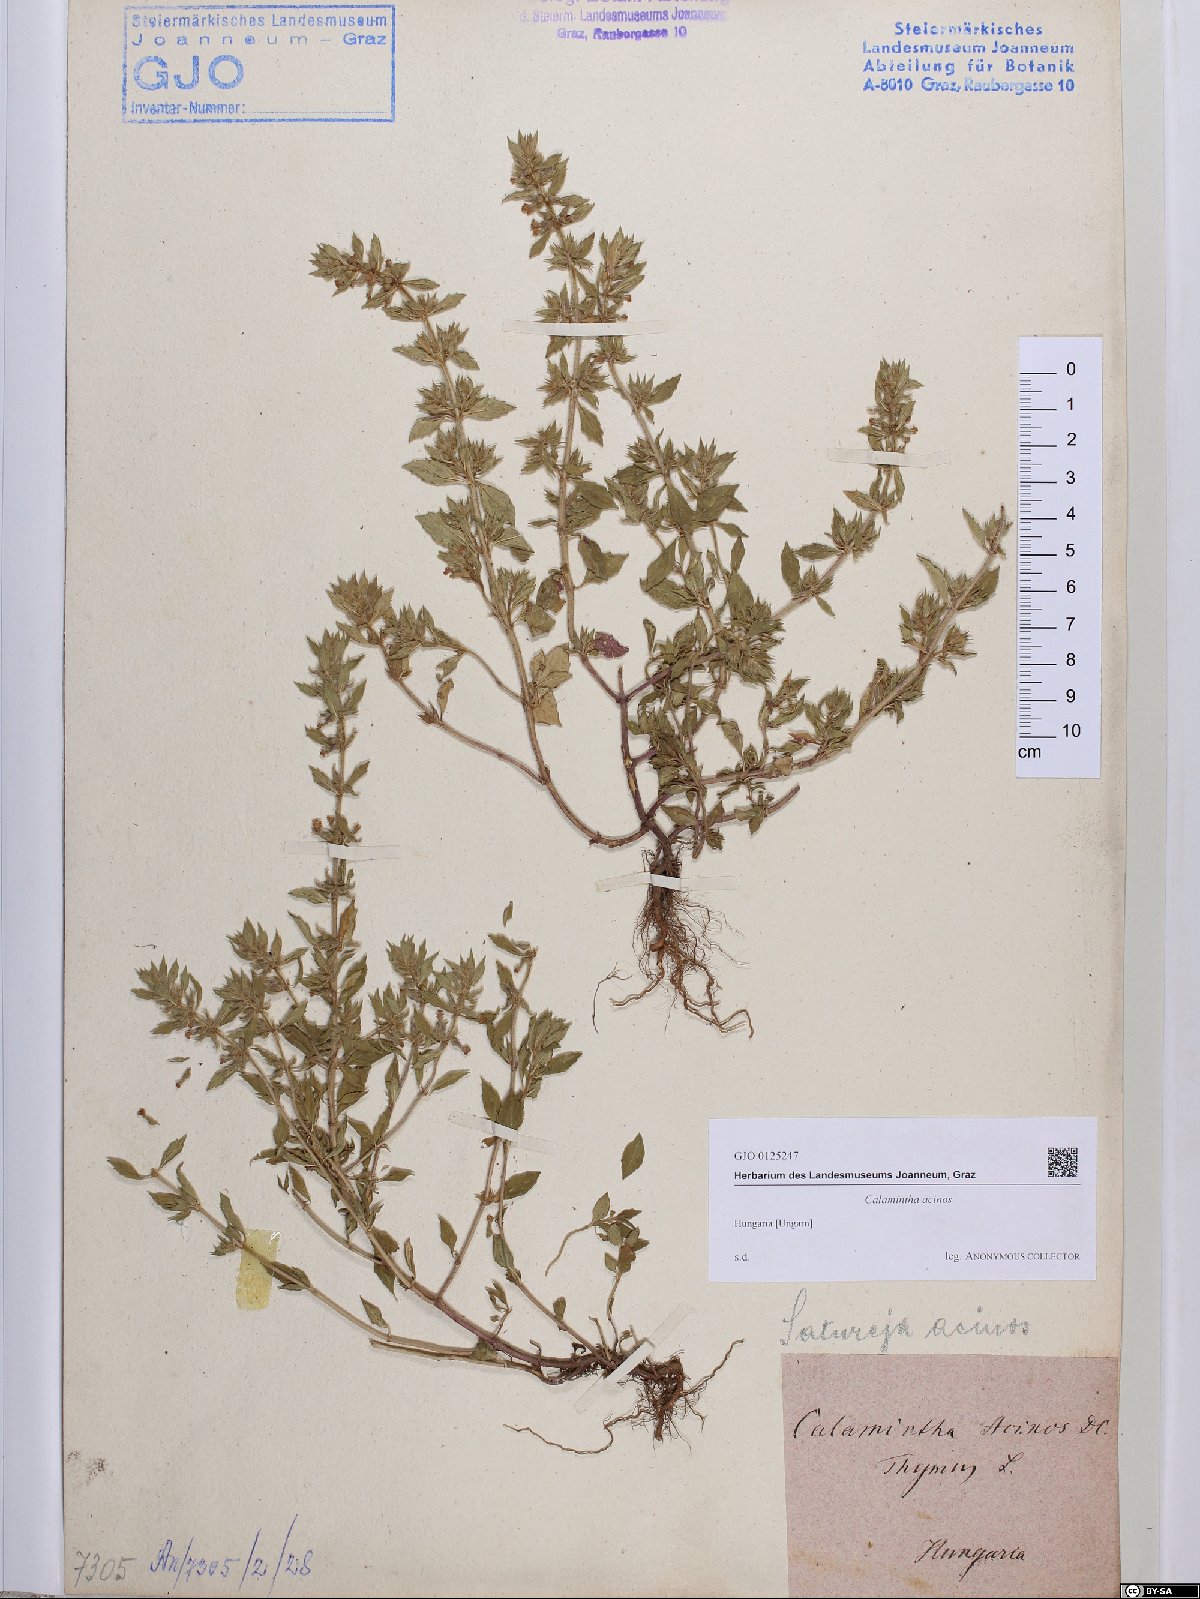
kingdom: Plantae
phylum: Tracheophyta
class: Magnoliopsida
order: Lamiales
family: Lamiaceae
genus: Clinopodium
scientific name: Clinopodium acinos
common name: Basil thyme
